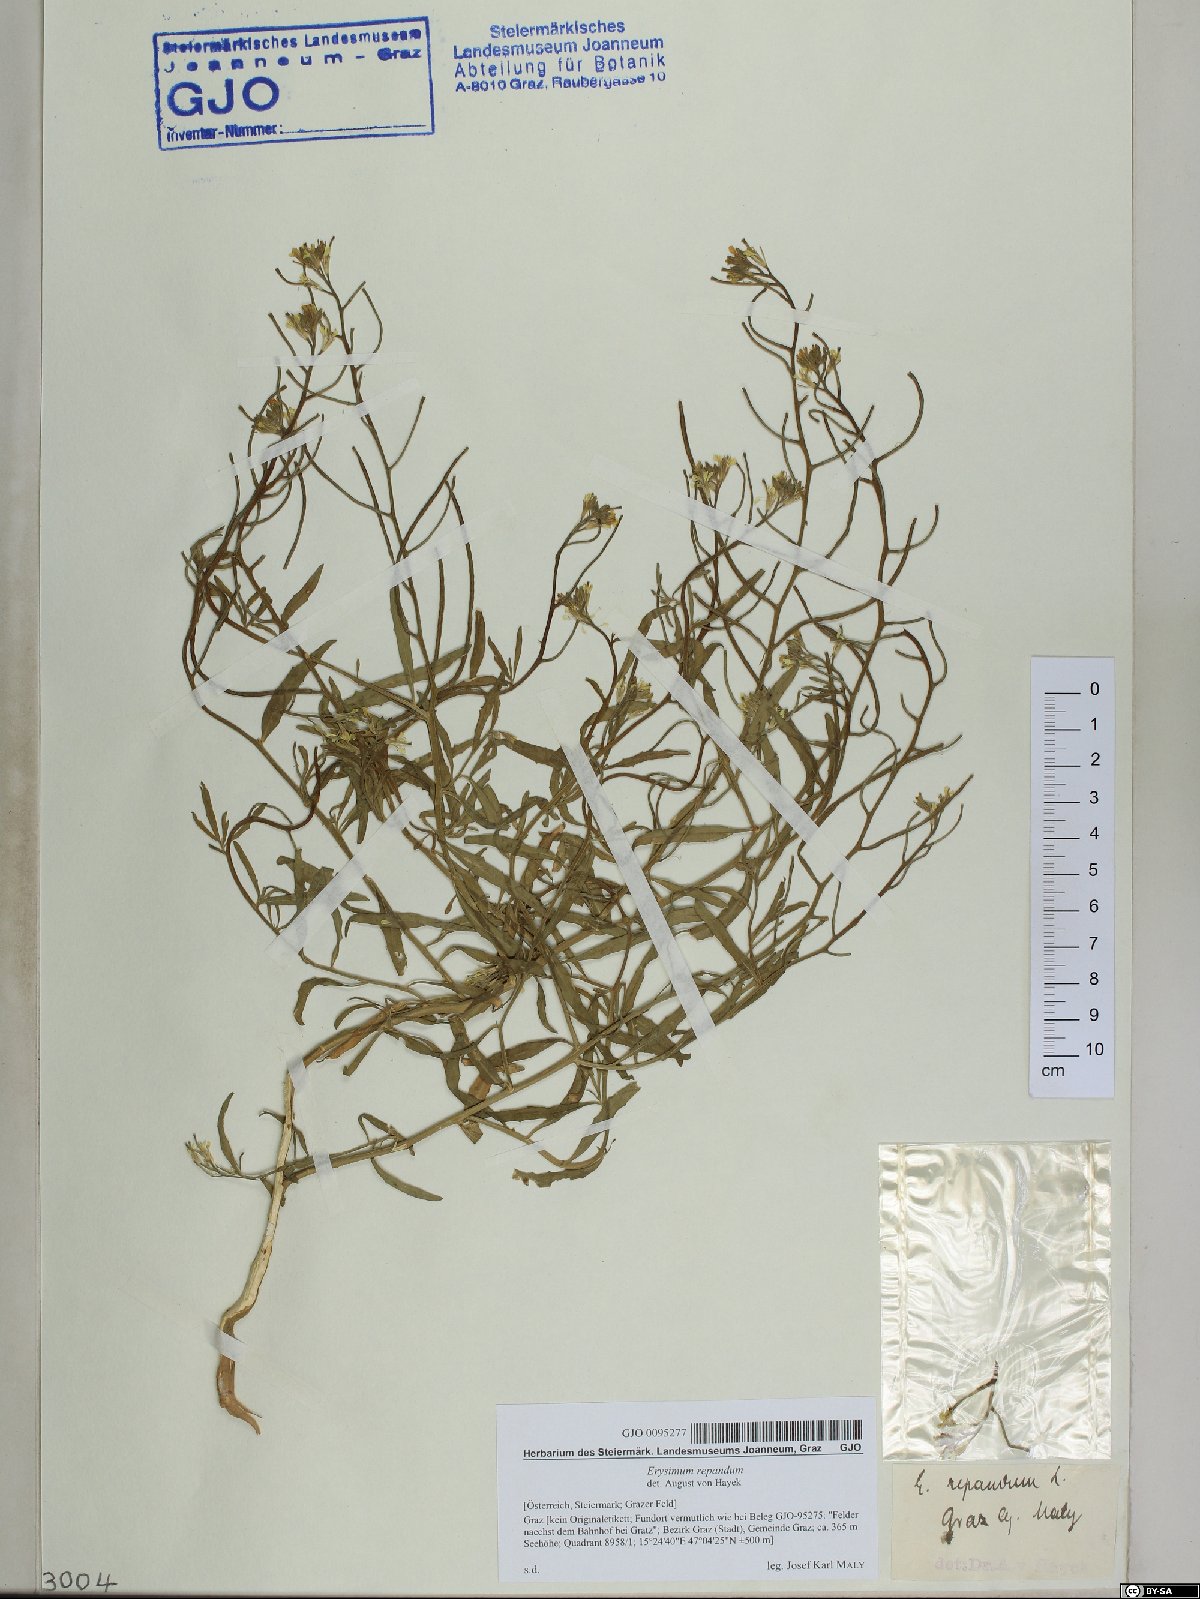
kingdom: Plantae
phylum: Tracheophyta
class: Magnoliopsida
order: Brassicales
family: Brassicaceae
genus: Erysimum
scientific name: Erysimum repandum
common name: Spreading wallflower
